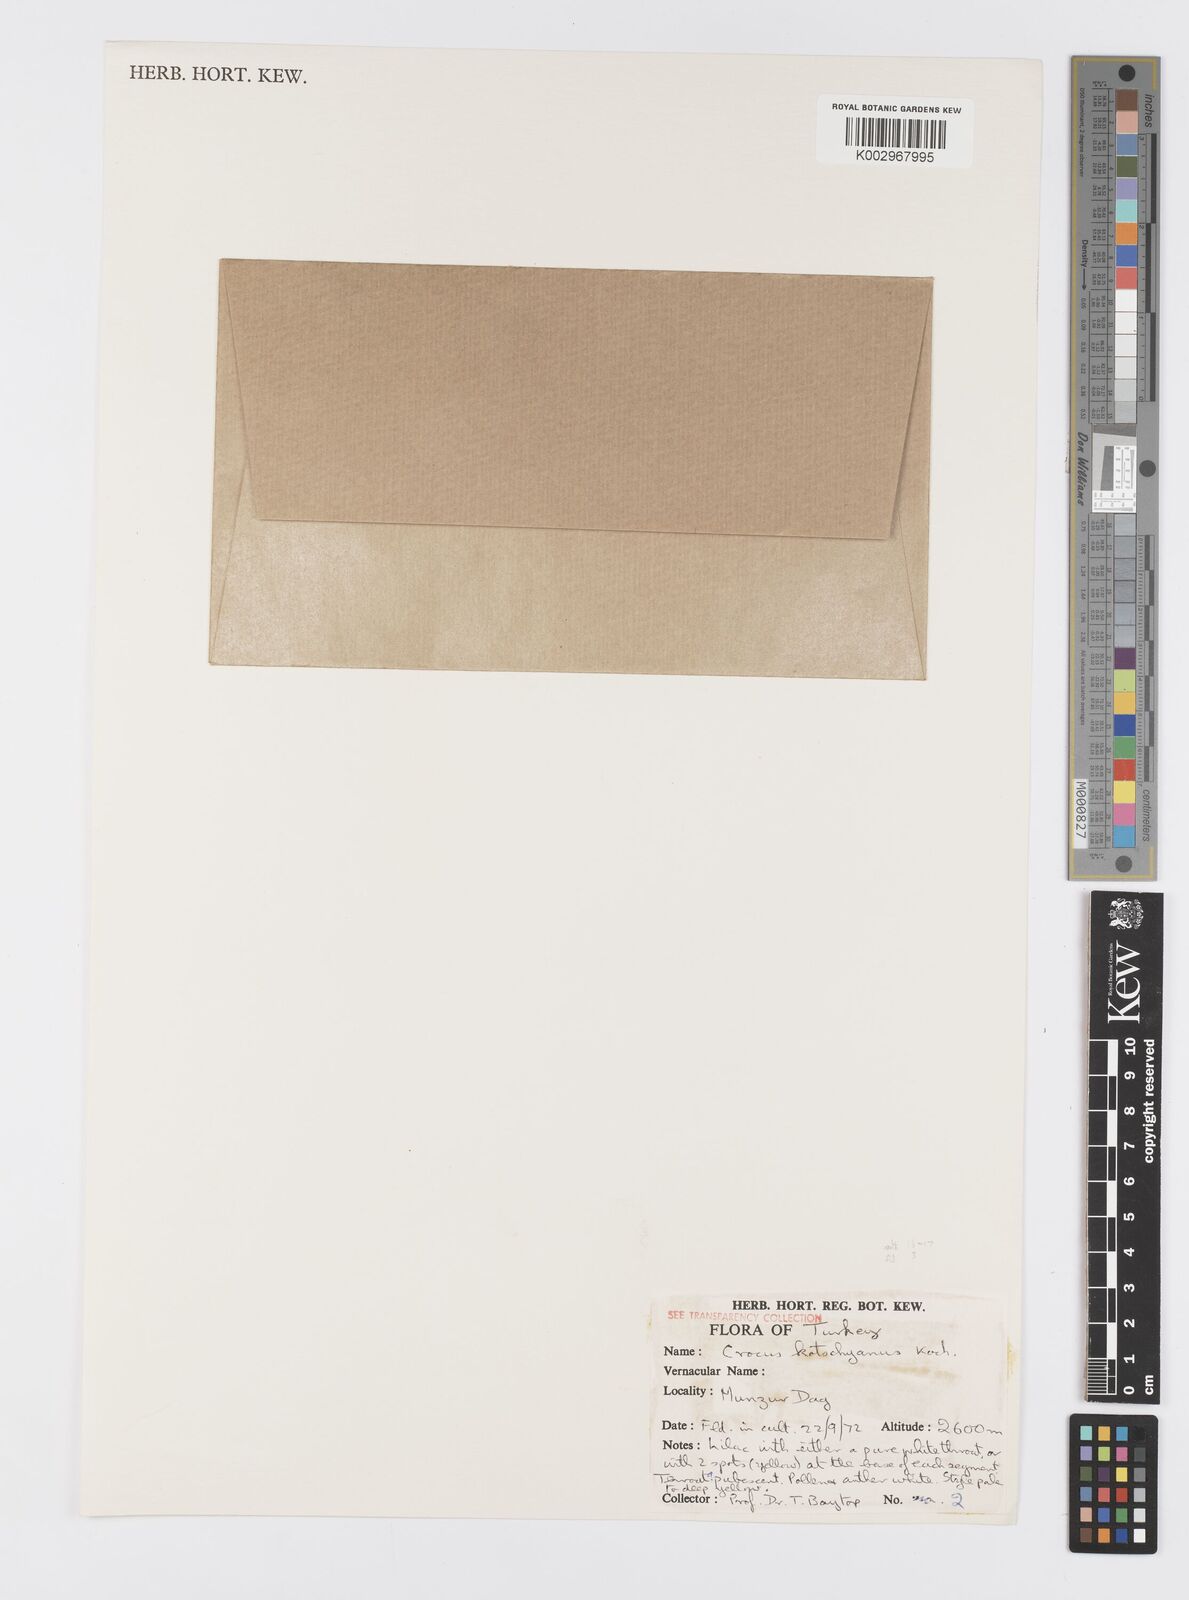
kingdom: Plantae
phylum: Tracheophyta
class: Liliopsida
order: Asparagales
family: Iridaceae
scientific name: Iridaceae
